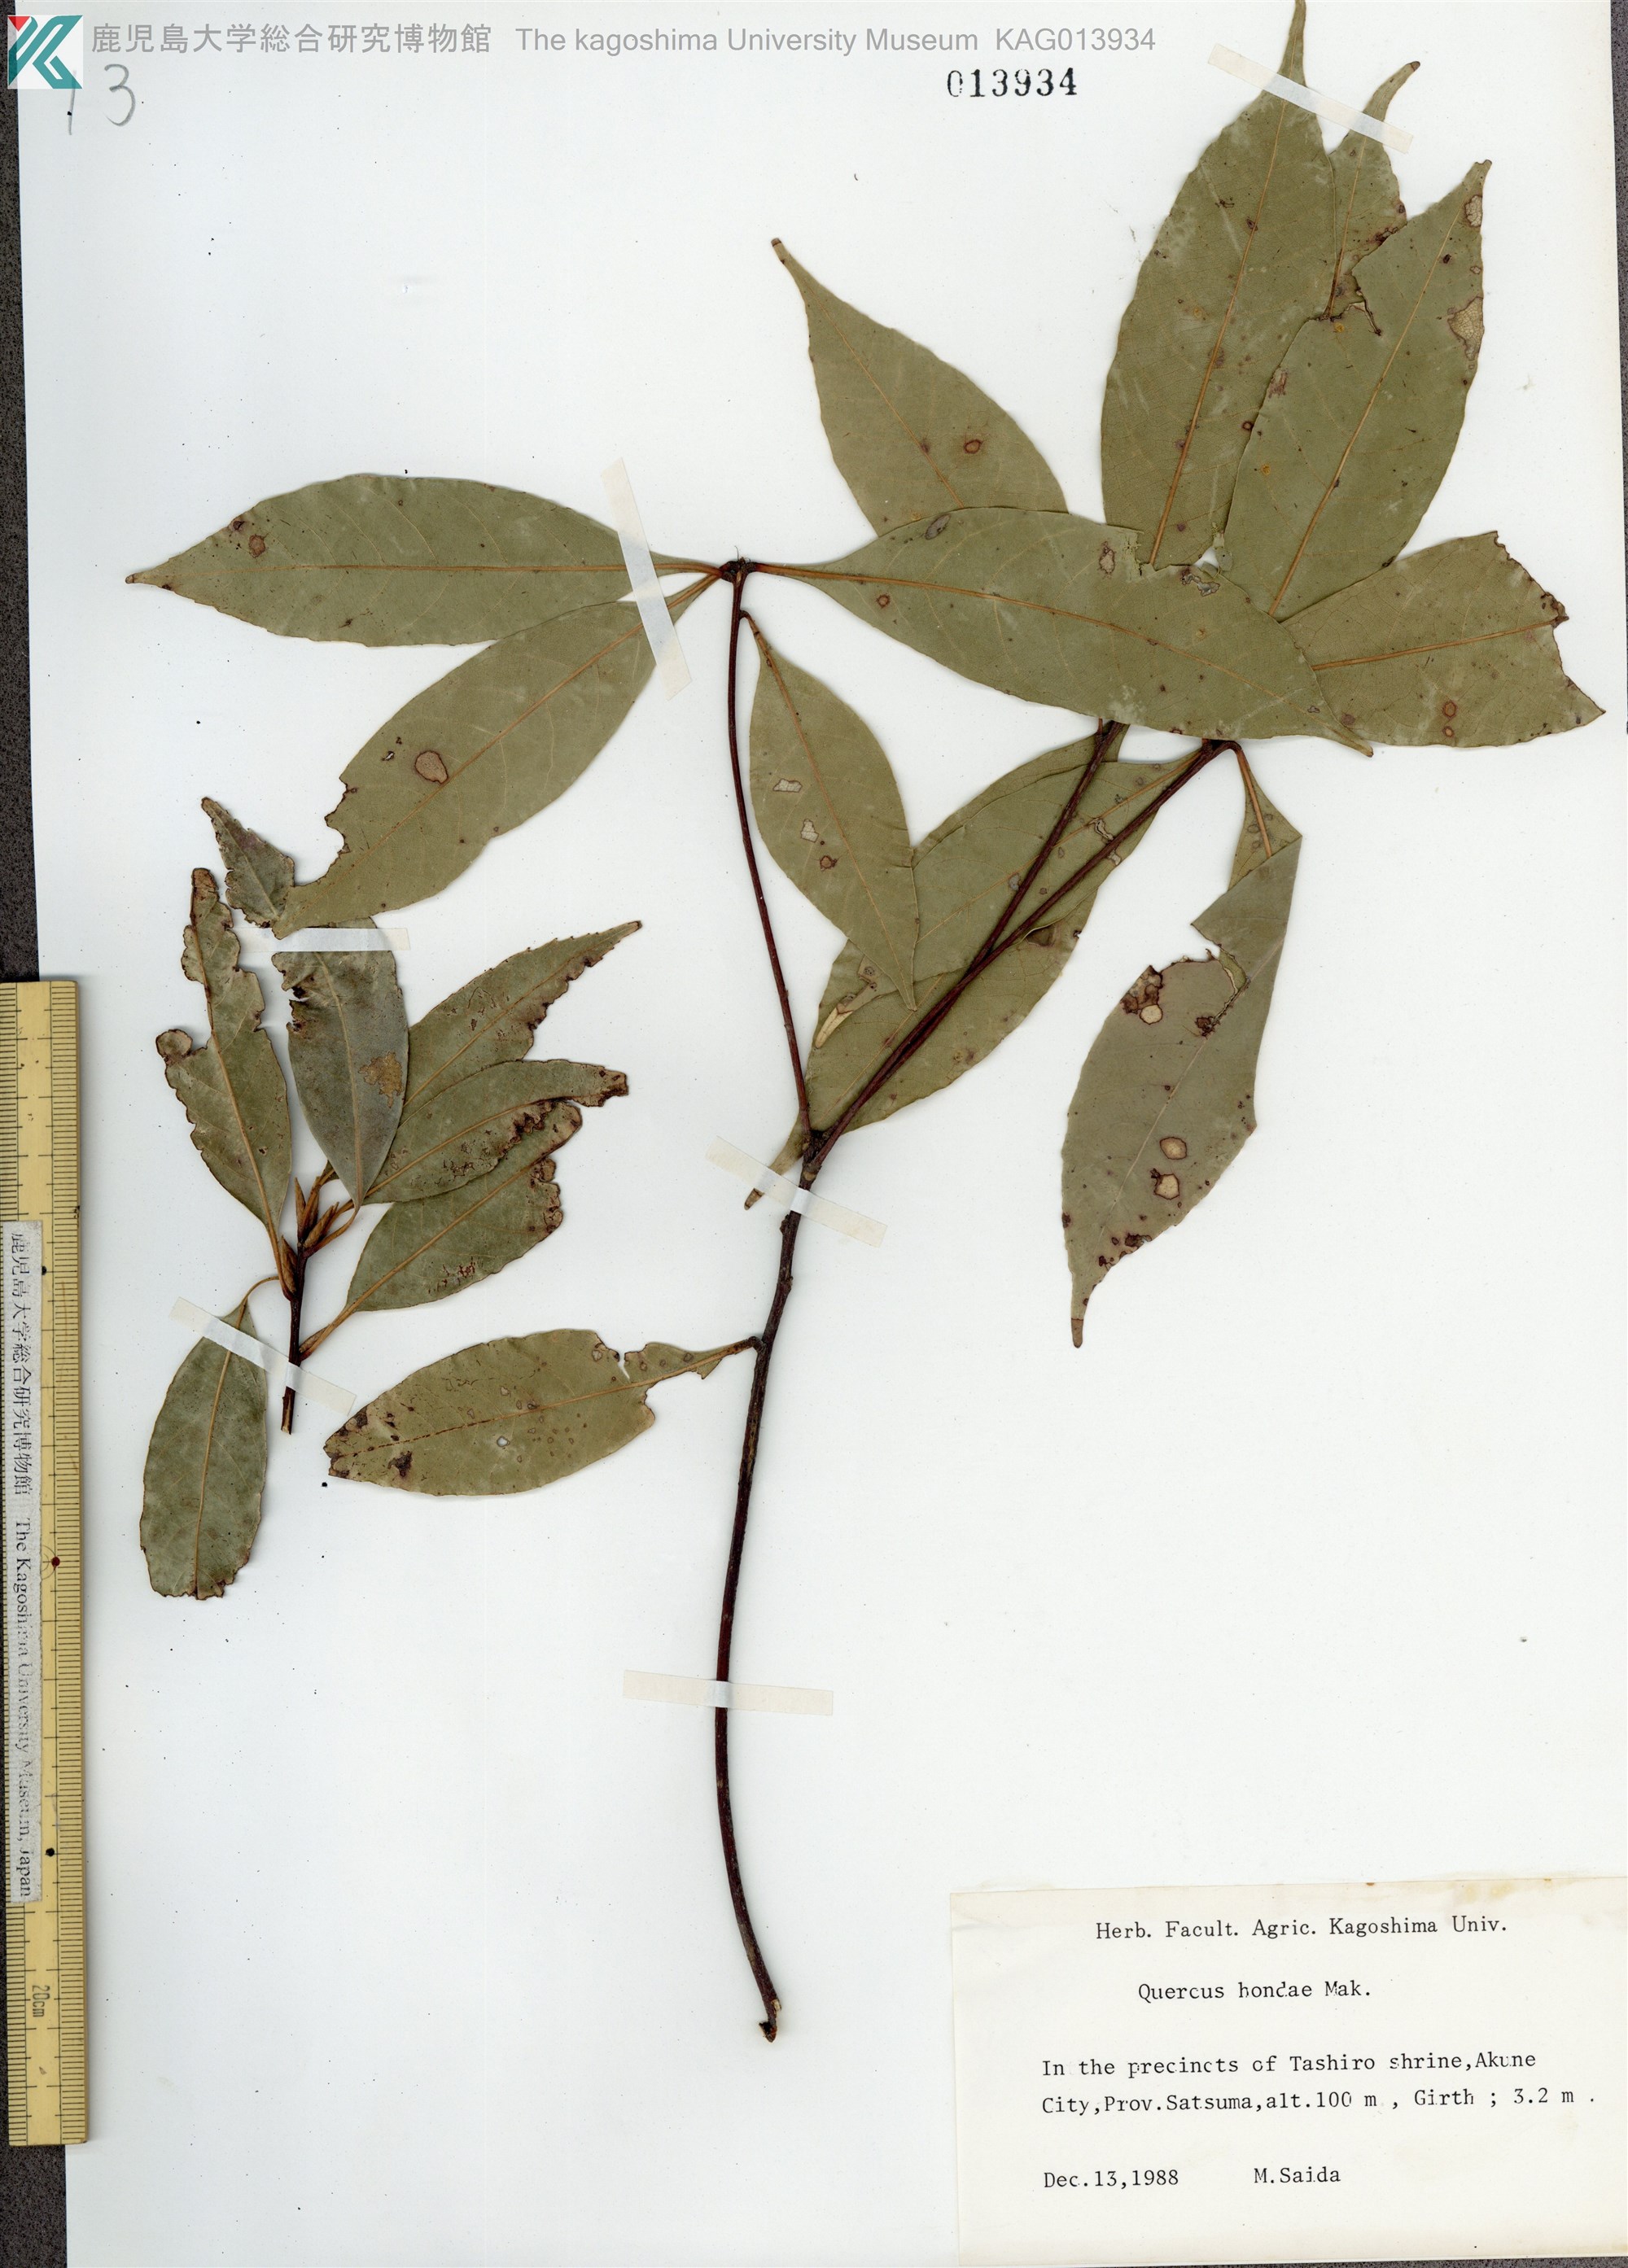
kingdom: Plantae
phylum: Tracheophyta
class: Magnoliopsida
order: Fagales
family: Fagaceae
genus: Quercus
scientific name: Quercus hondae
